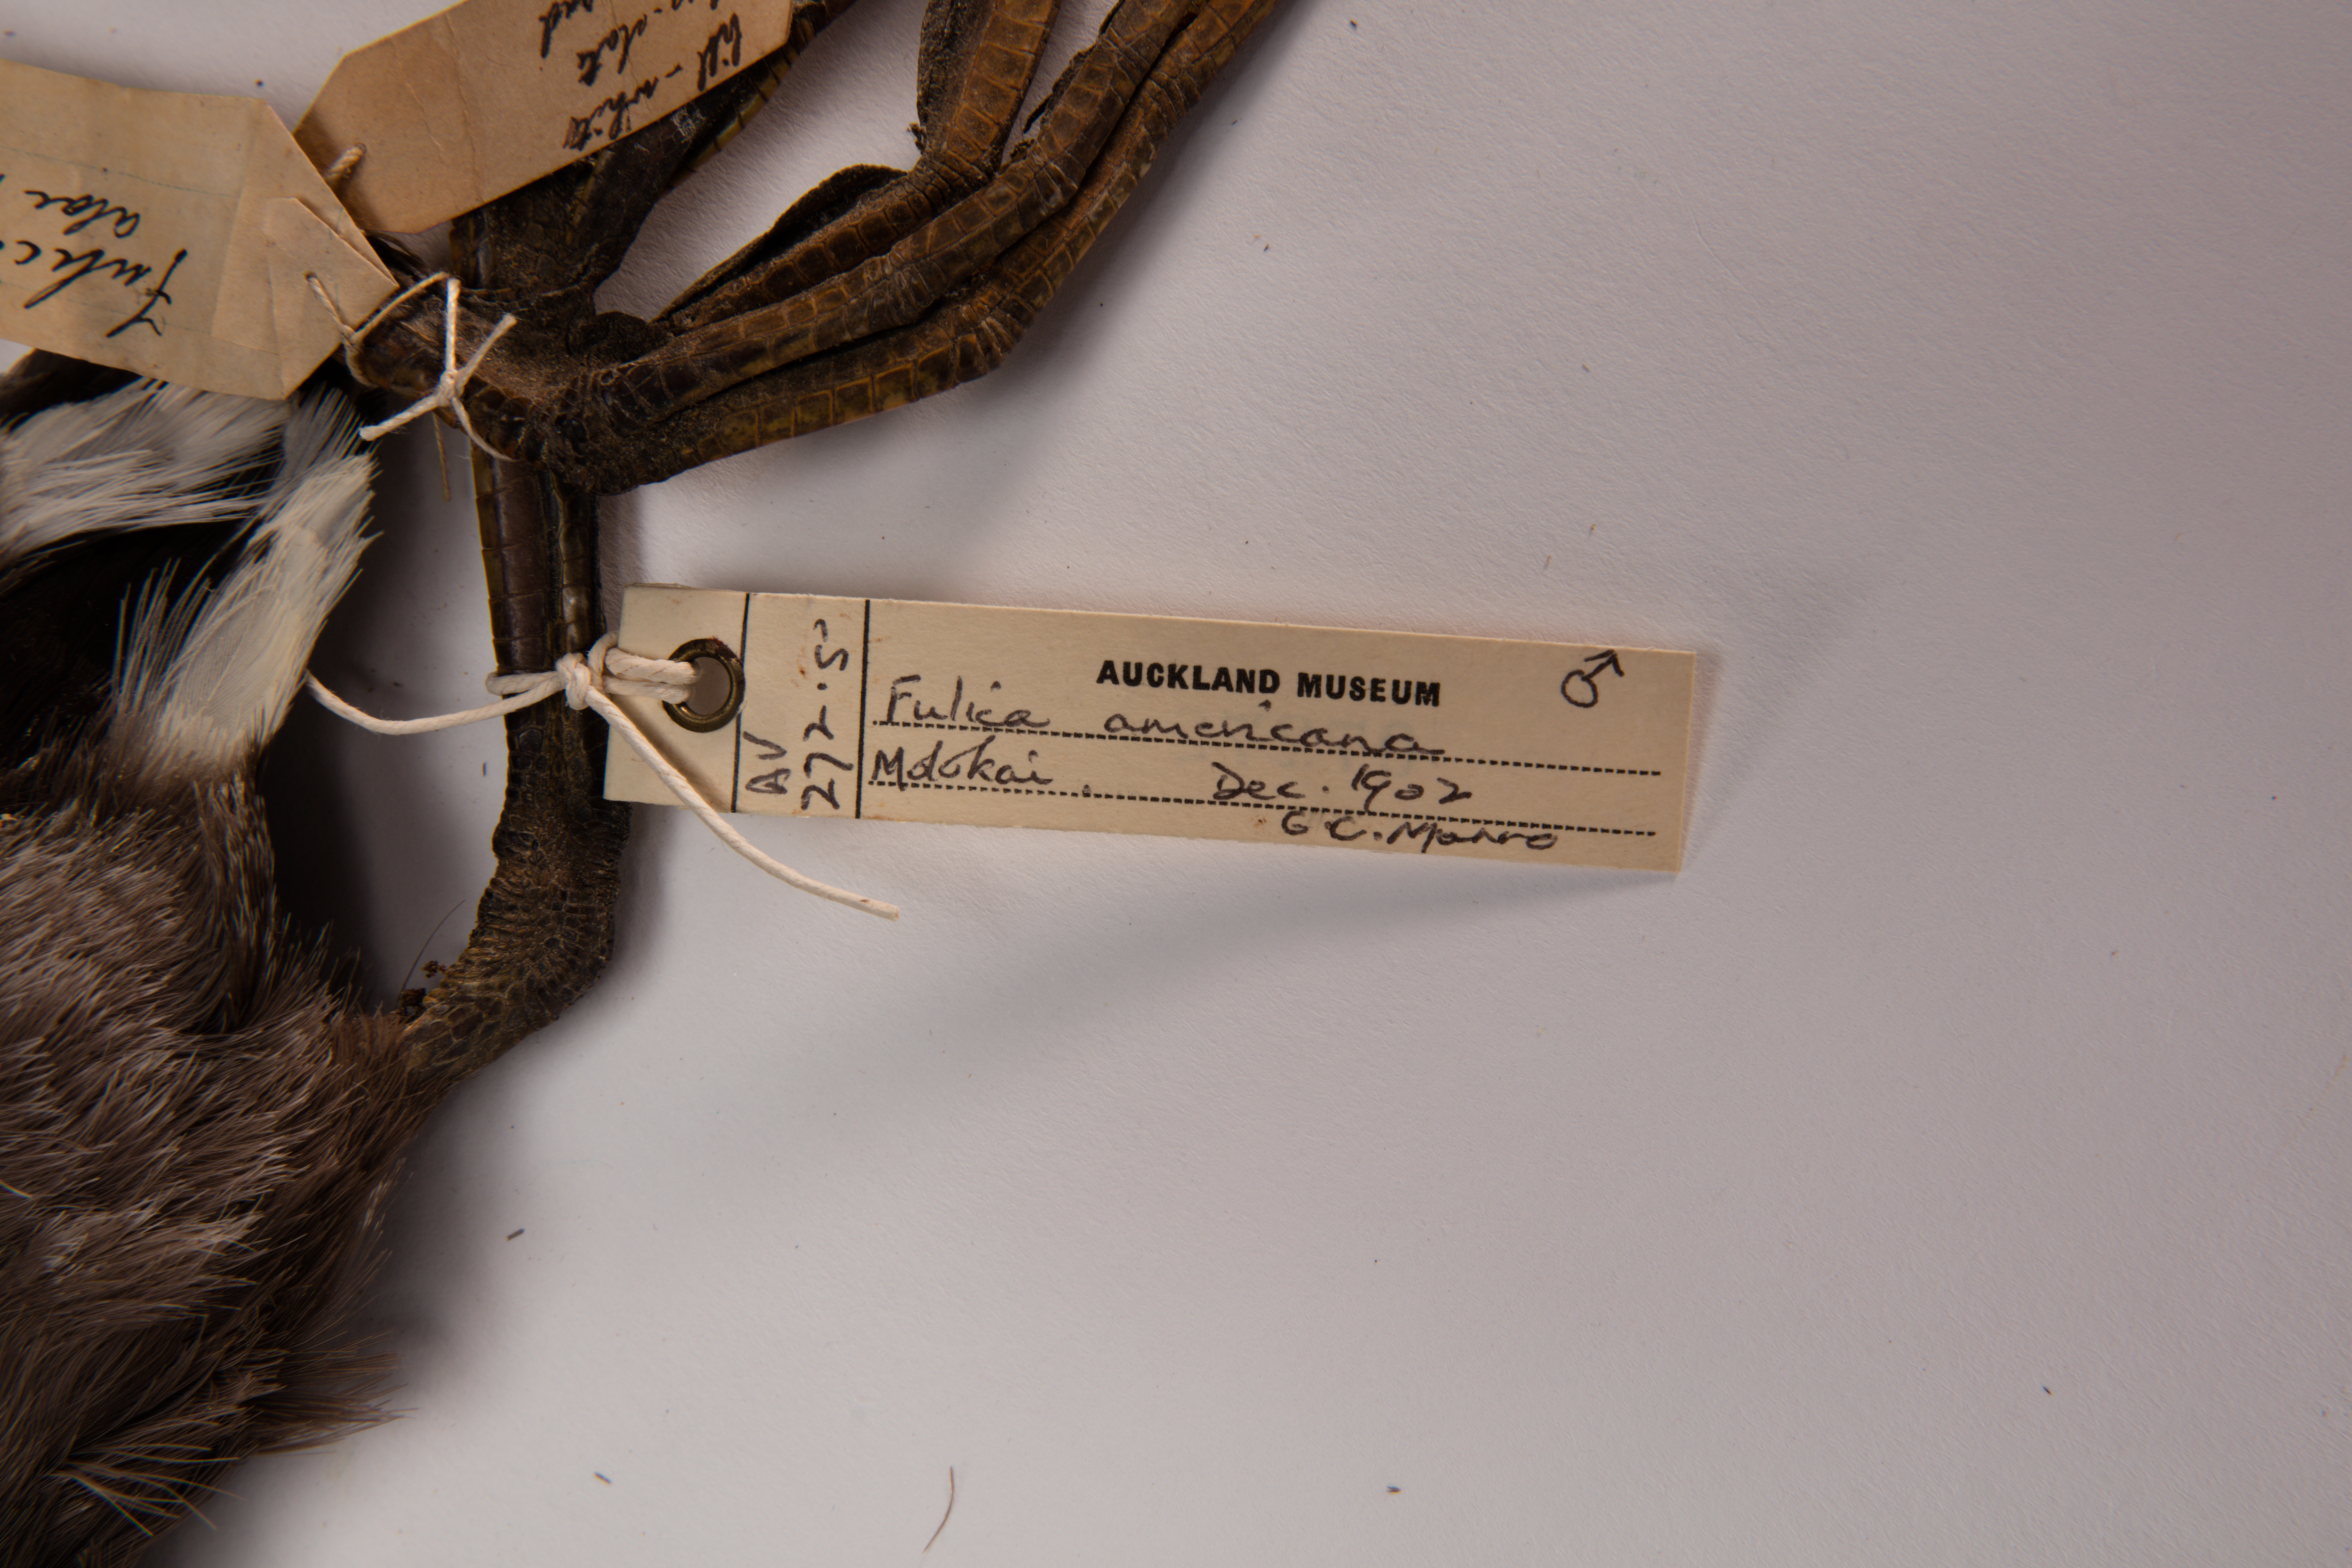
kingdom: Animalia
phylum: Chordata
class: Aves
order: Gruiformes
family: Rallidae
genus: Fulica
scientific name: Fulica americana
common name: American coot
